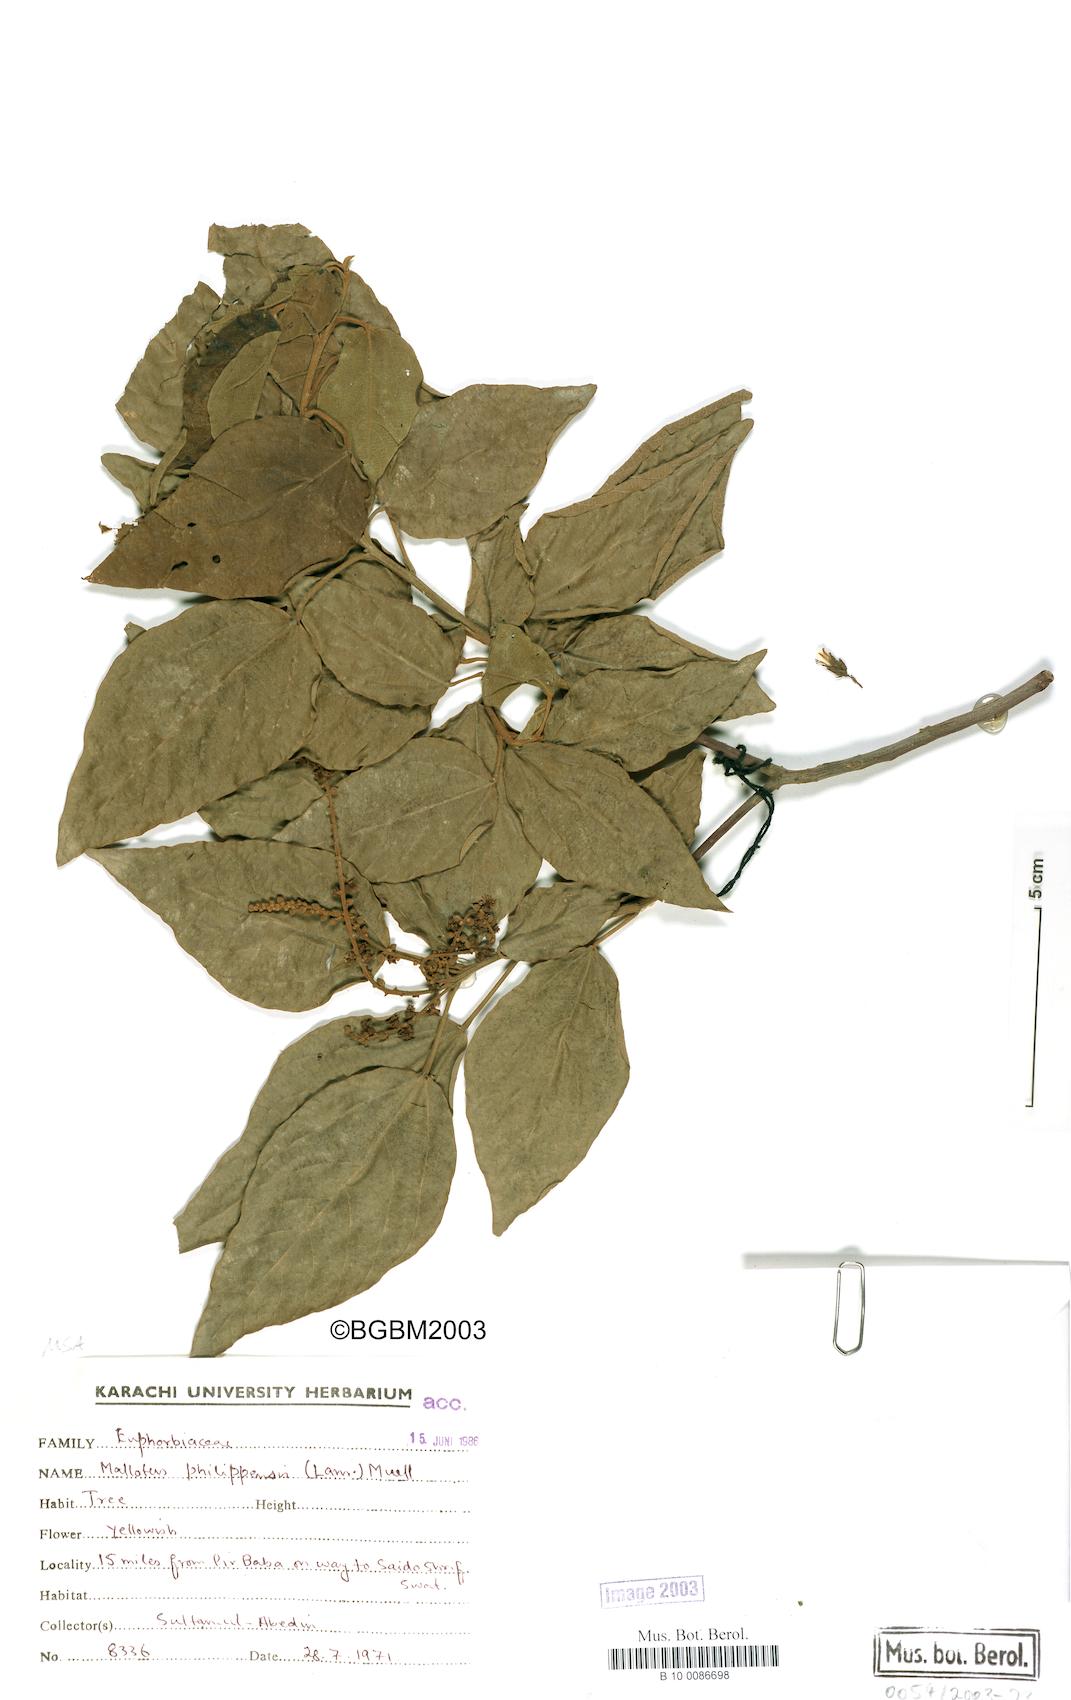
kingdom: Plantae
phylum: Tracheophyta
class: Magnoliopsida
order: Malpighiales
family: Euphorbiaceae
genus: Mallotus
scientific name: Mallotus philippensis
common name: Kamala tree
